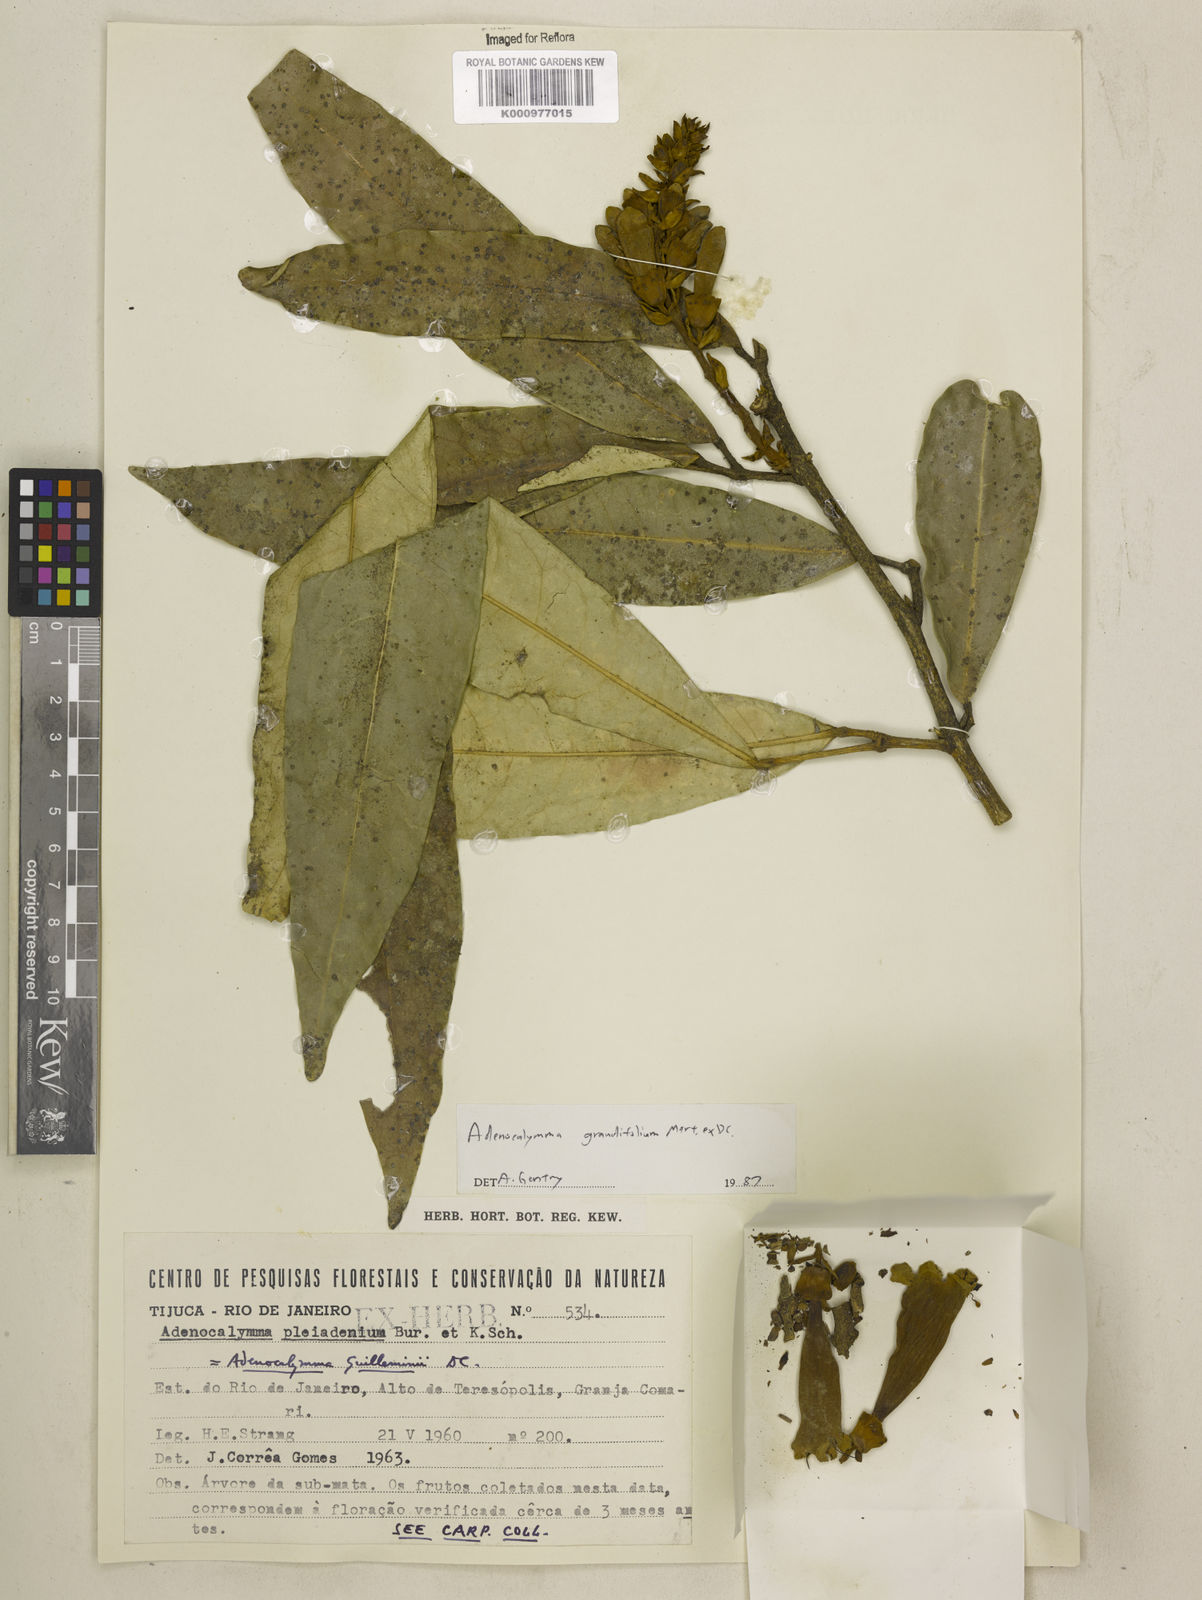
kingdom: Plantae
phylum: Tracheophyta
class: Magnoliopsida
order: Lamiales
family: Bignoniaceae
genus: Adenocalymma
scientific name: Adenocalymma ternatum
